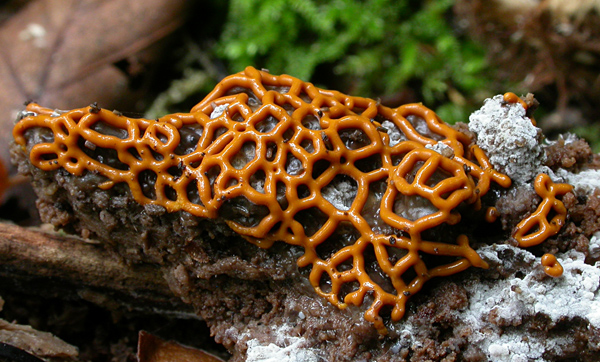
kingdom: Protozoa
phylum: Mycetozoa
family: Trichiidae
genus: Hemitrichia
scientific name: Hemitrichia serpula
